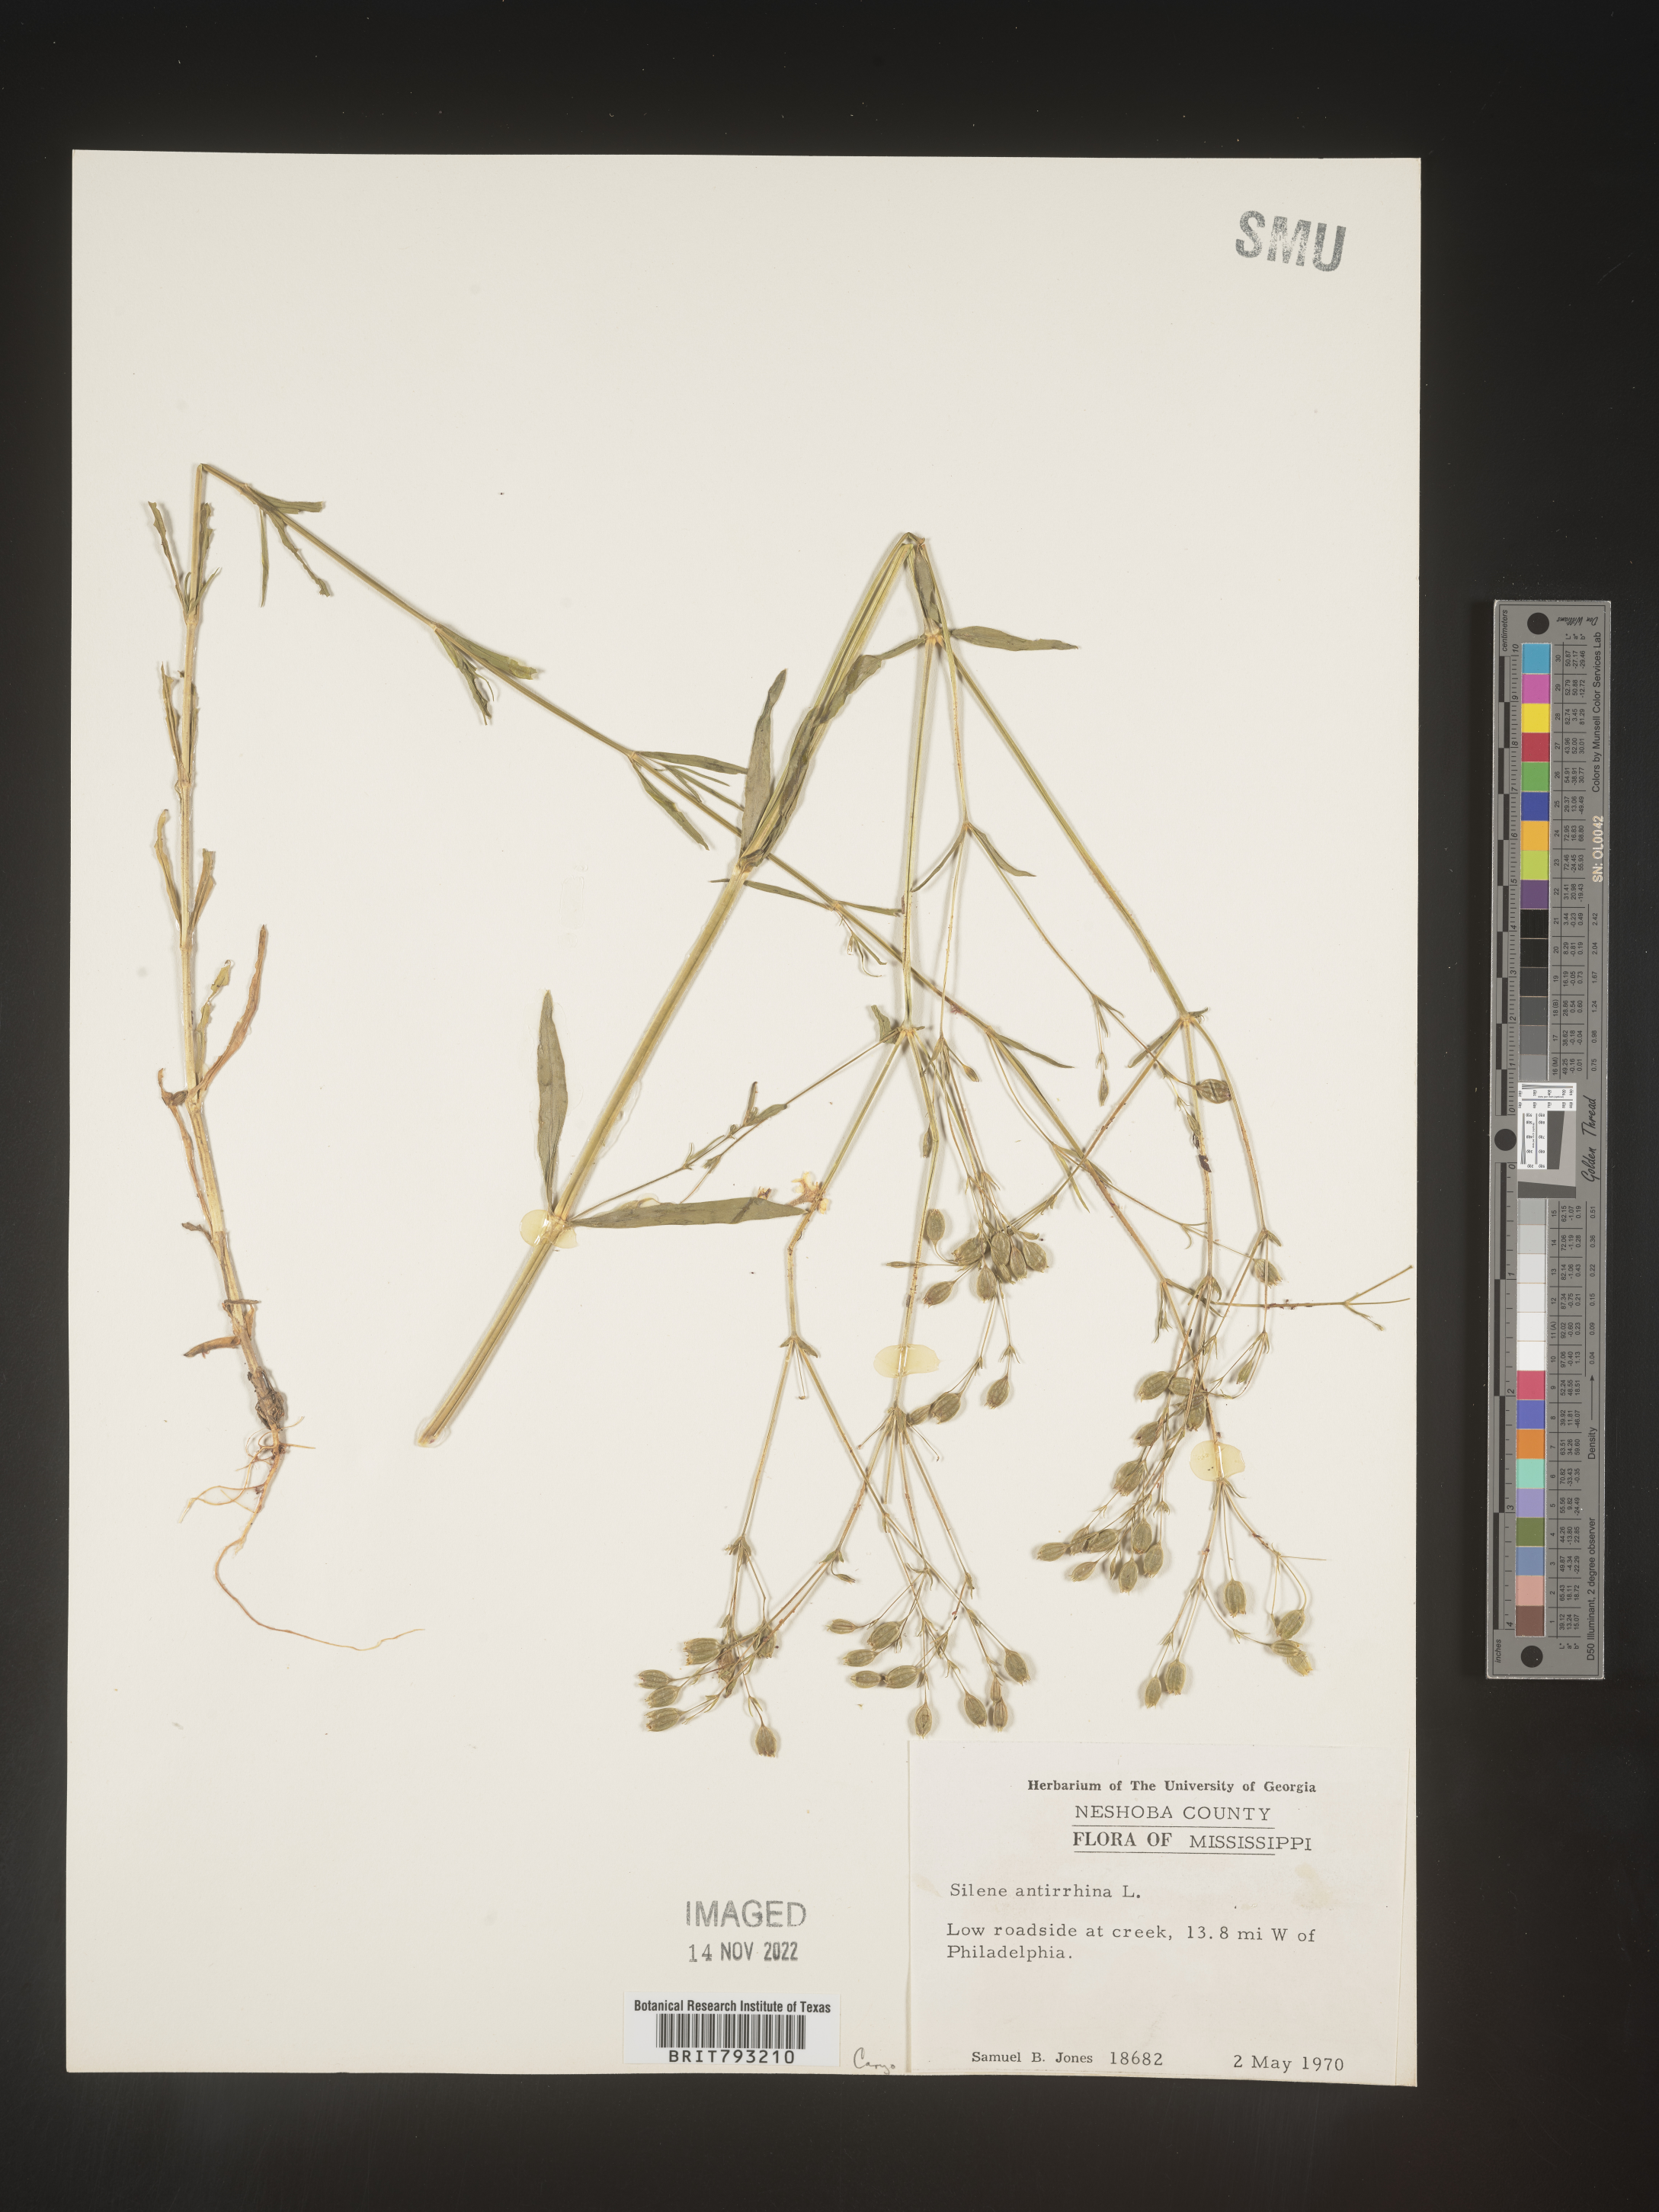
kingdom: Plantae
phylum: Tracheophyta
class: Magnoliopsida
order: Caryophyllales
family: Caryophyllaceae
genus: Silene
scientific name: Silene antirrhina
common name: Sleepy catchfly
